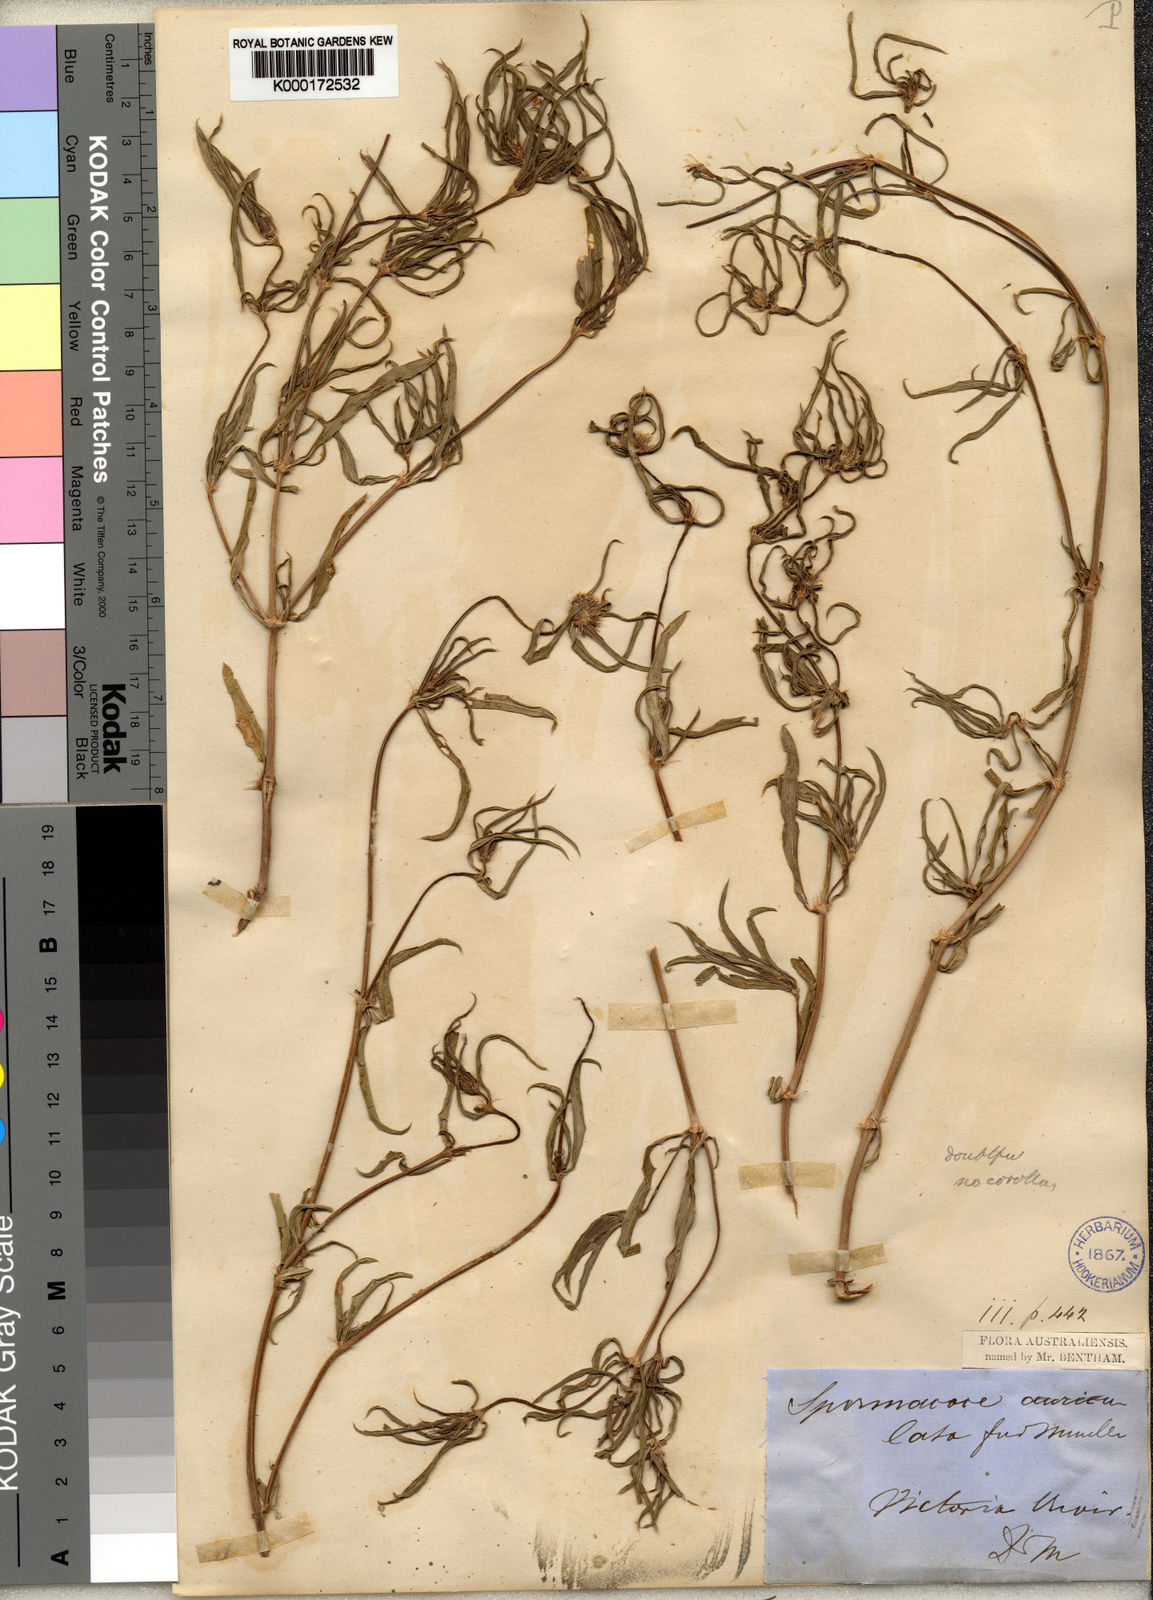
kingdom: Plantae
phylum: Tracheophyta
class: Magnoliopsida
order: Gentianales
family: Rubiaceae
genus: Spermacoce
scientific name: Spermacoce auriculata
